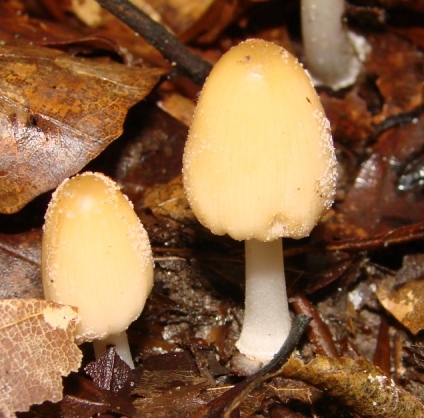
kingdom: Fungi
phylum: Basidiomycota
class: Agaricomycetes
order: Agaricales
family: Psathyrellaceae
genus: Coprinellus
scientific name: Coprinellus xanthothrix
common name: gultrådet blækhat
